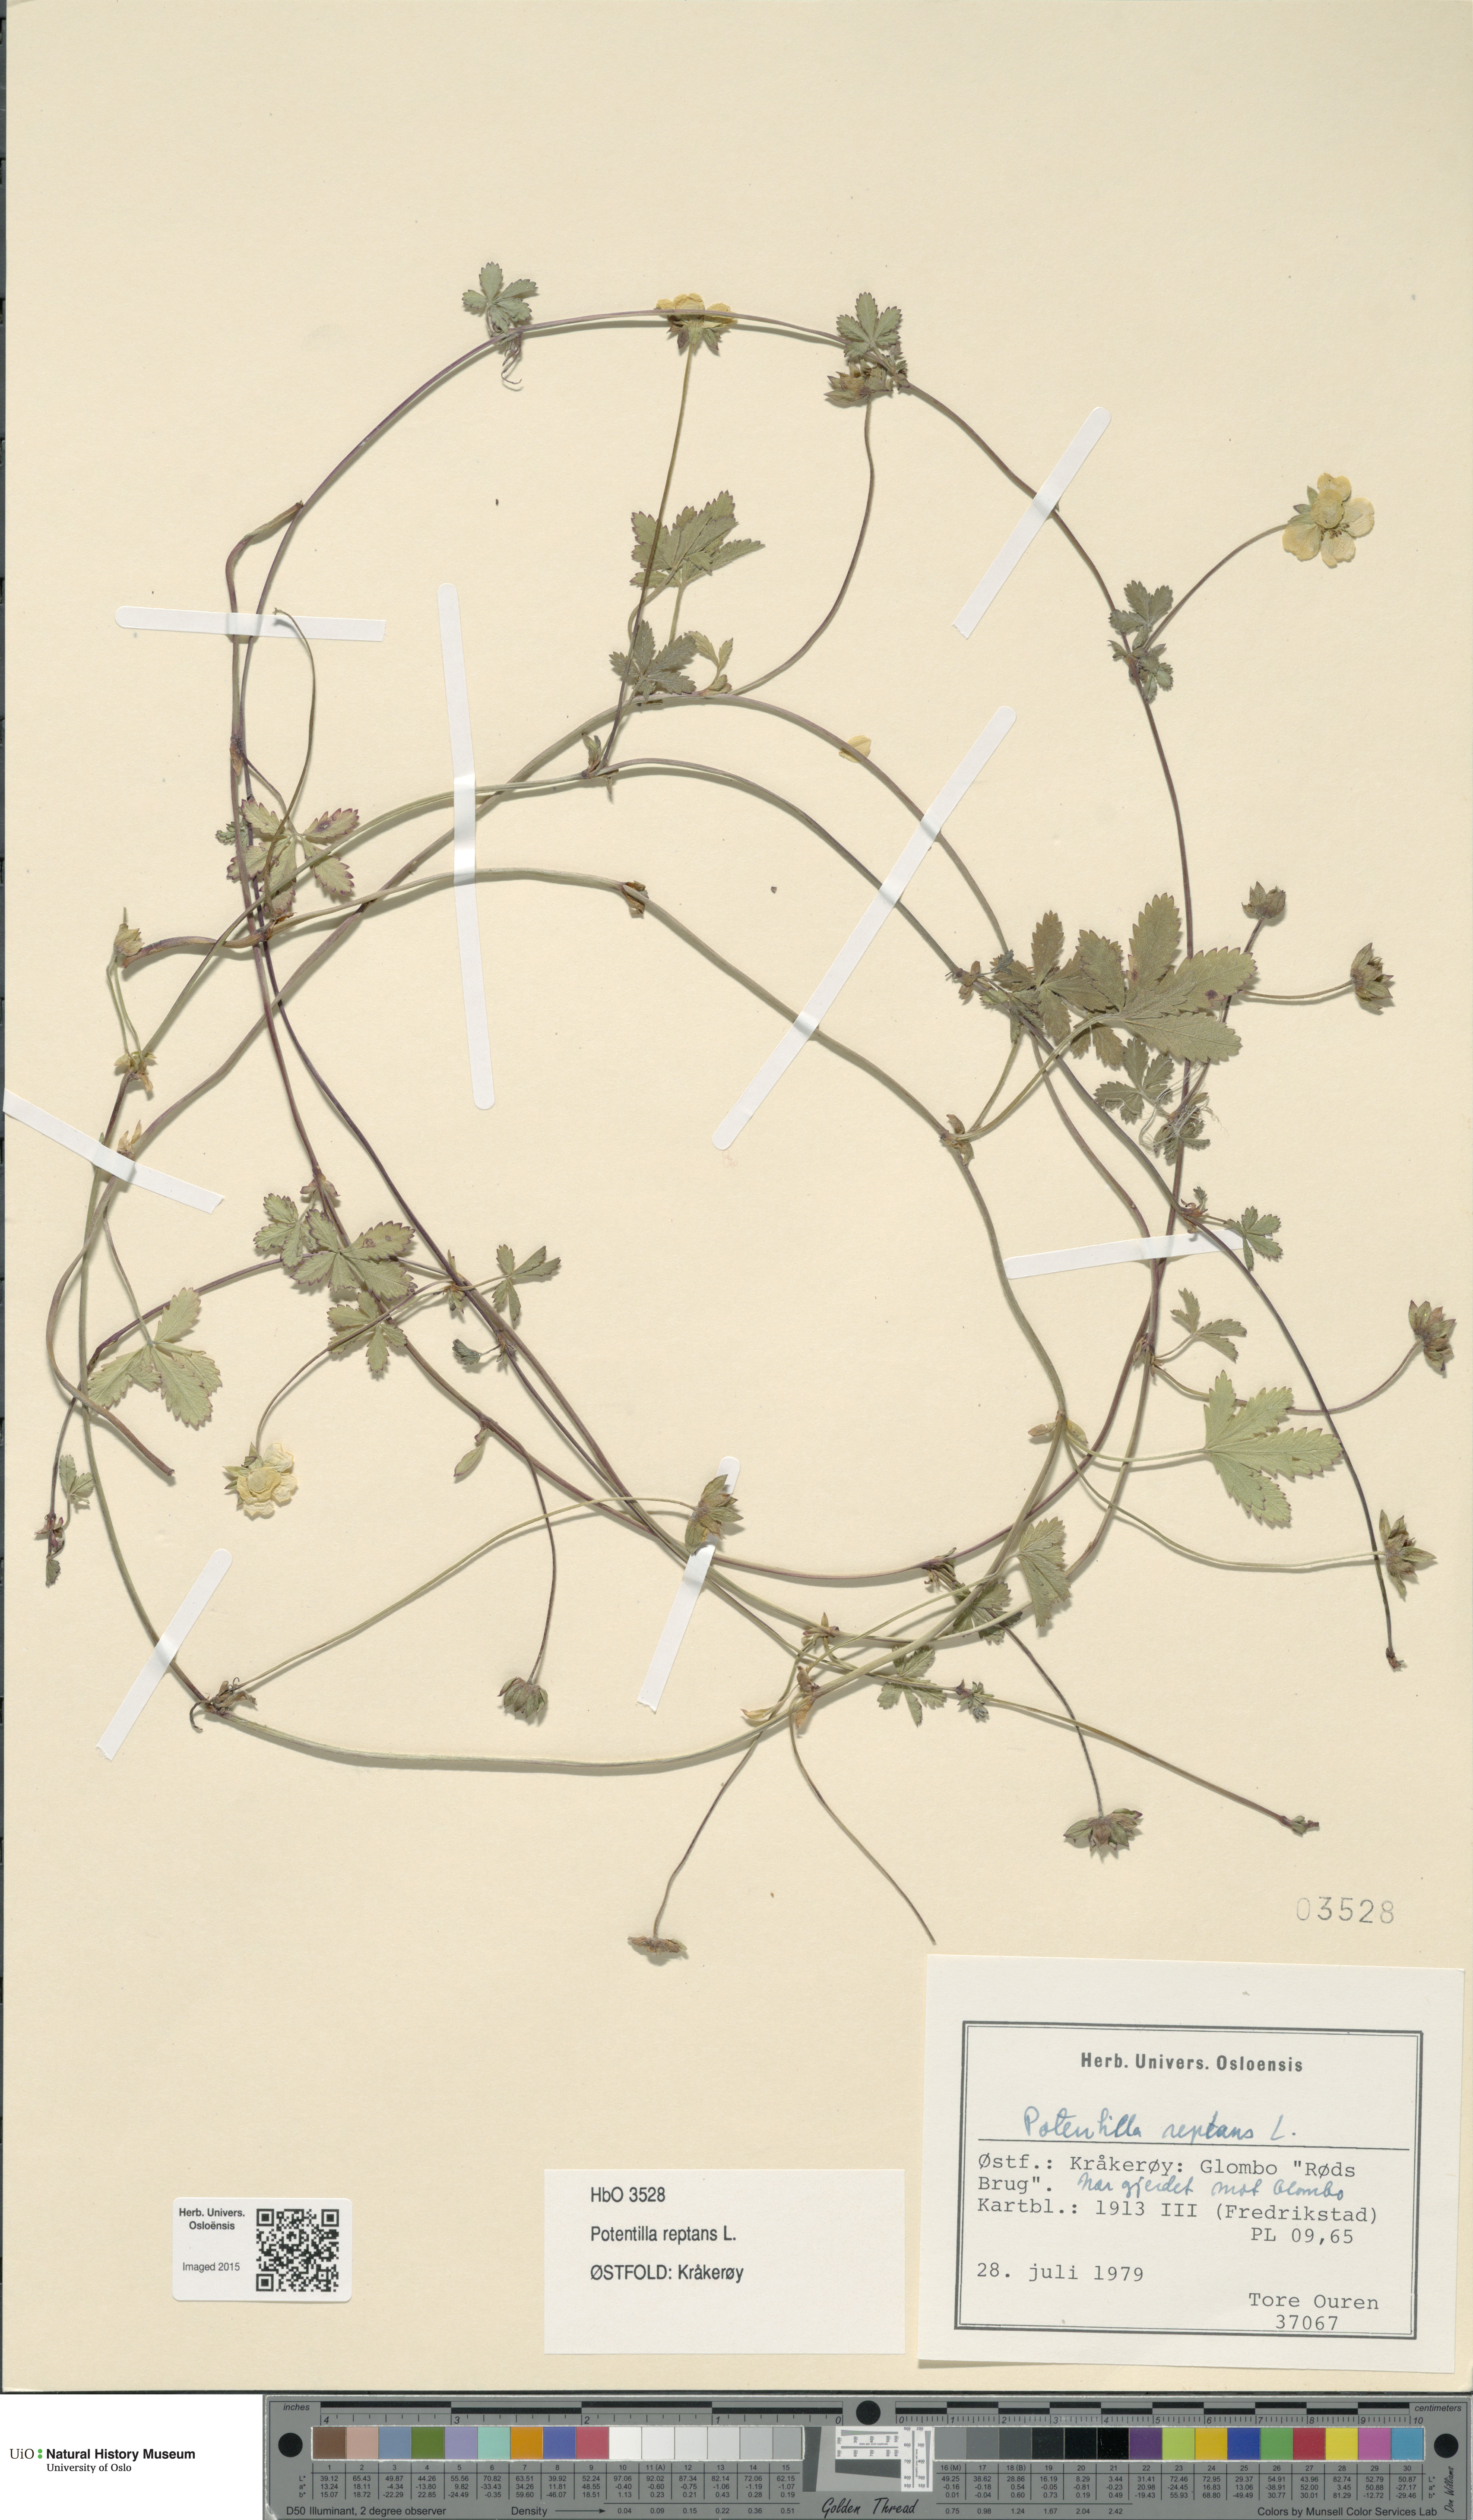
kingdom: Plantae
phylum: Tracheophyta
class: Magnoliopsida
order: Rosales
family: Rosaceae
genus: Potentilla
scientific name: Potentilla reptans
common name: Creeping cinquefoil
